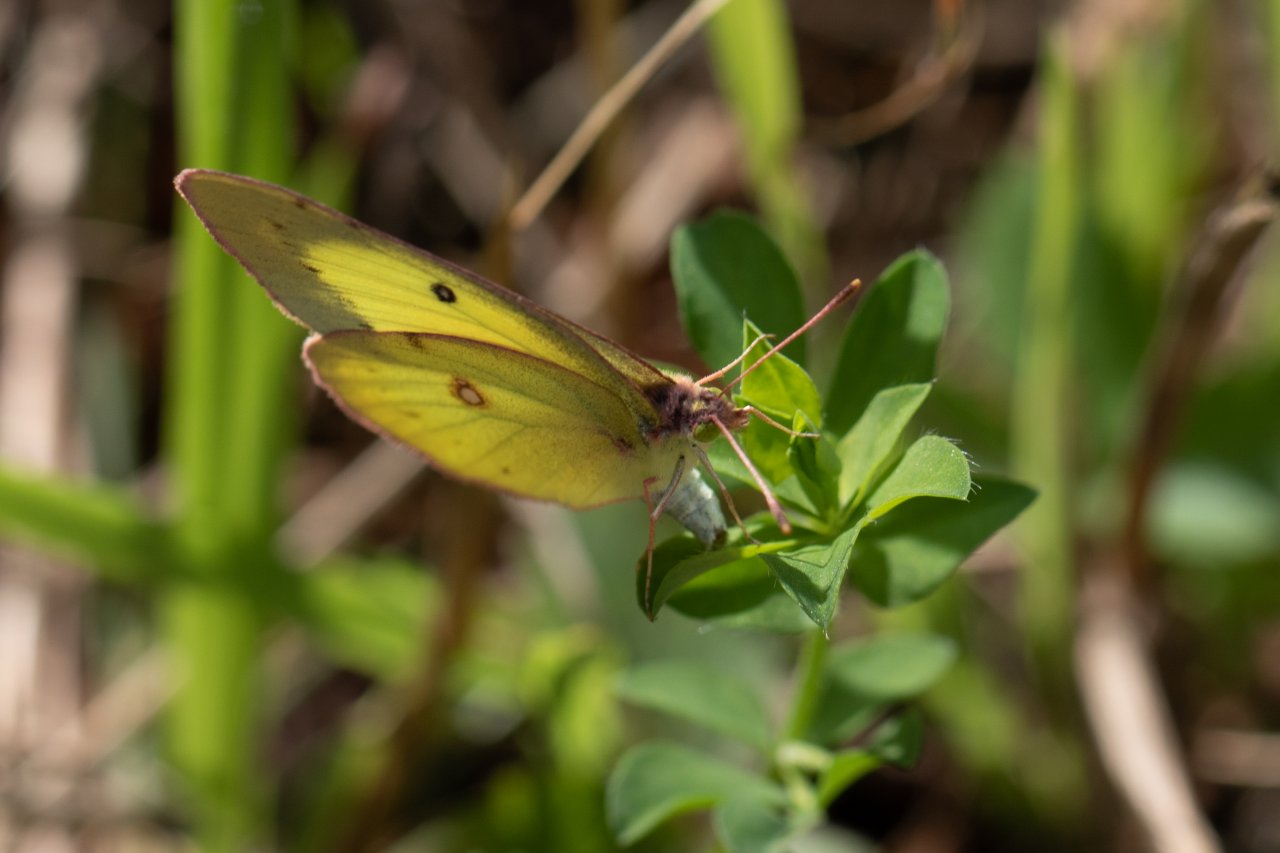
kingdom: Animalia
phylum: Arthropoda
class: Insecta
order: Lepidoptera
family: Pieridae
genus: Colias
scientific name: Colias philodice
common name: Clouded Sulphur
